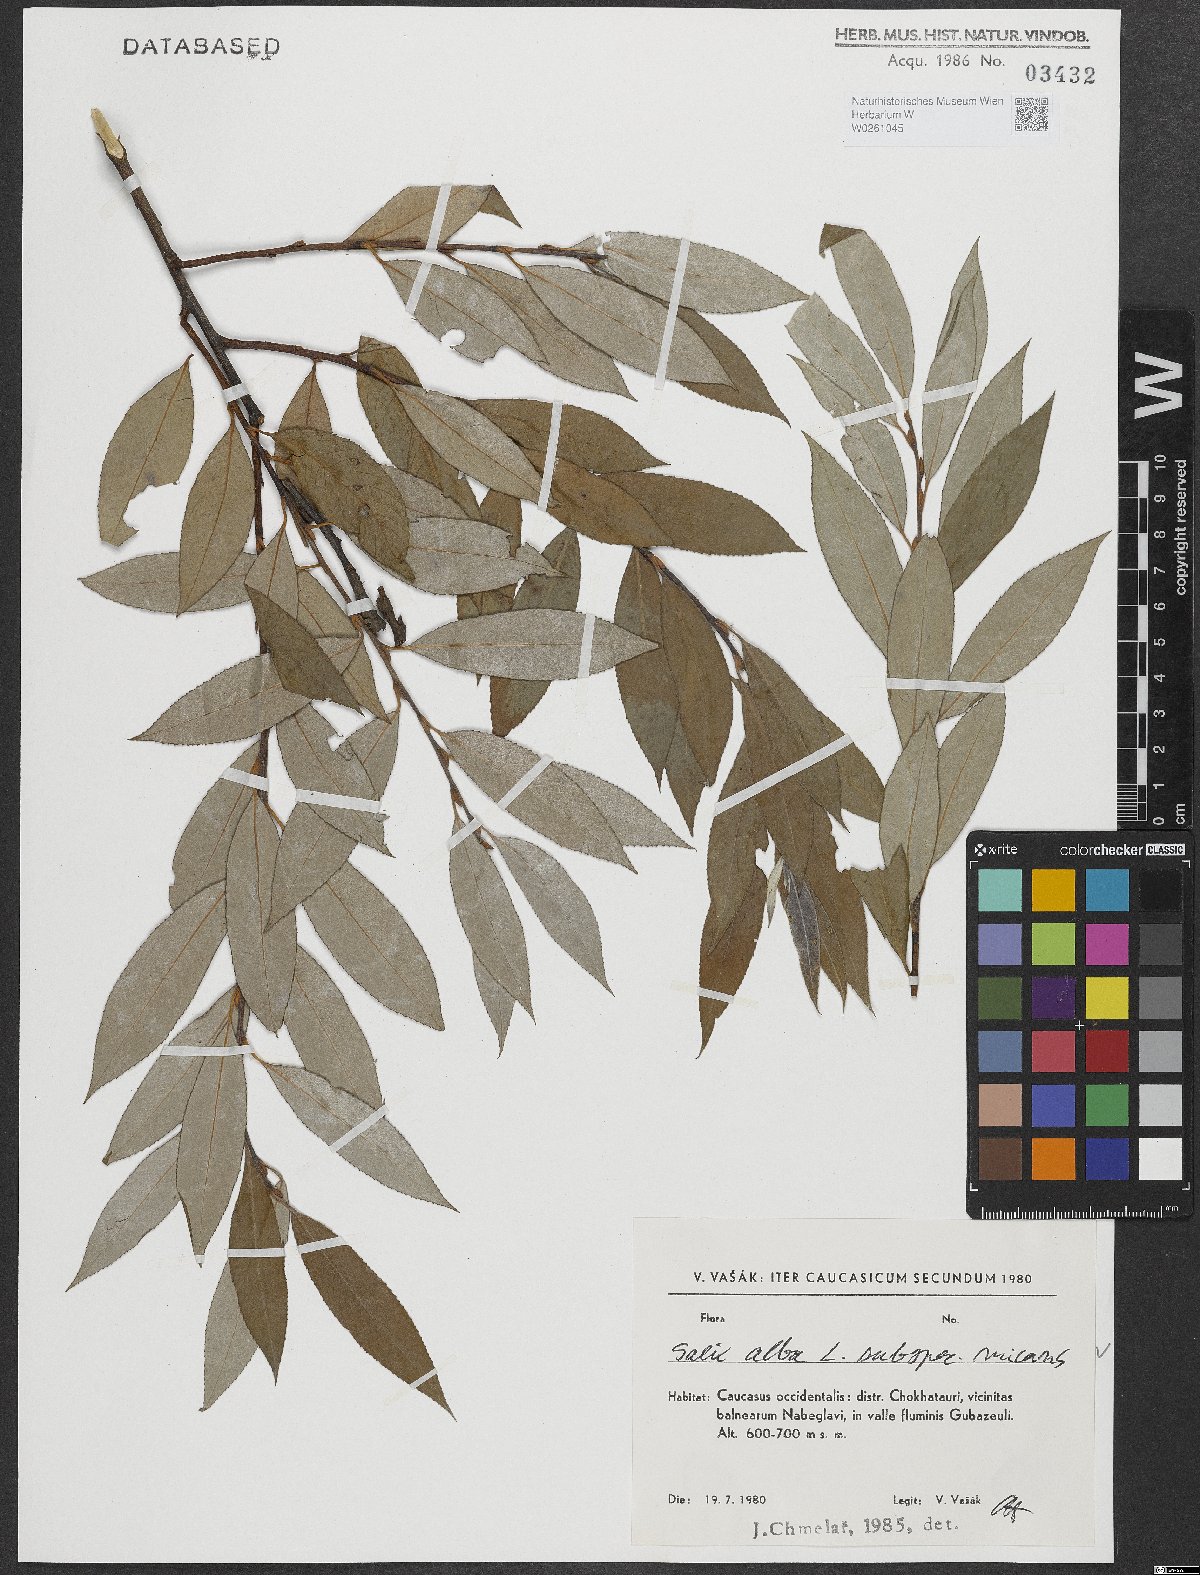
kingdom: Plantae
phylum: Tracheophyta
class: Magnoliopsida
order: Malpighiales
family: Salicaceae
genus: Salix
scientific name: Salix alba
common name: White willow
